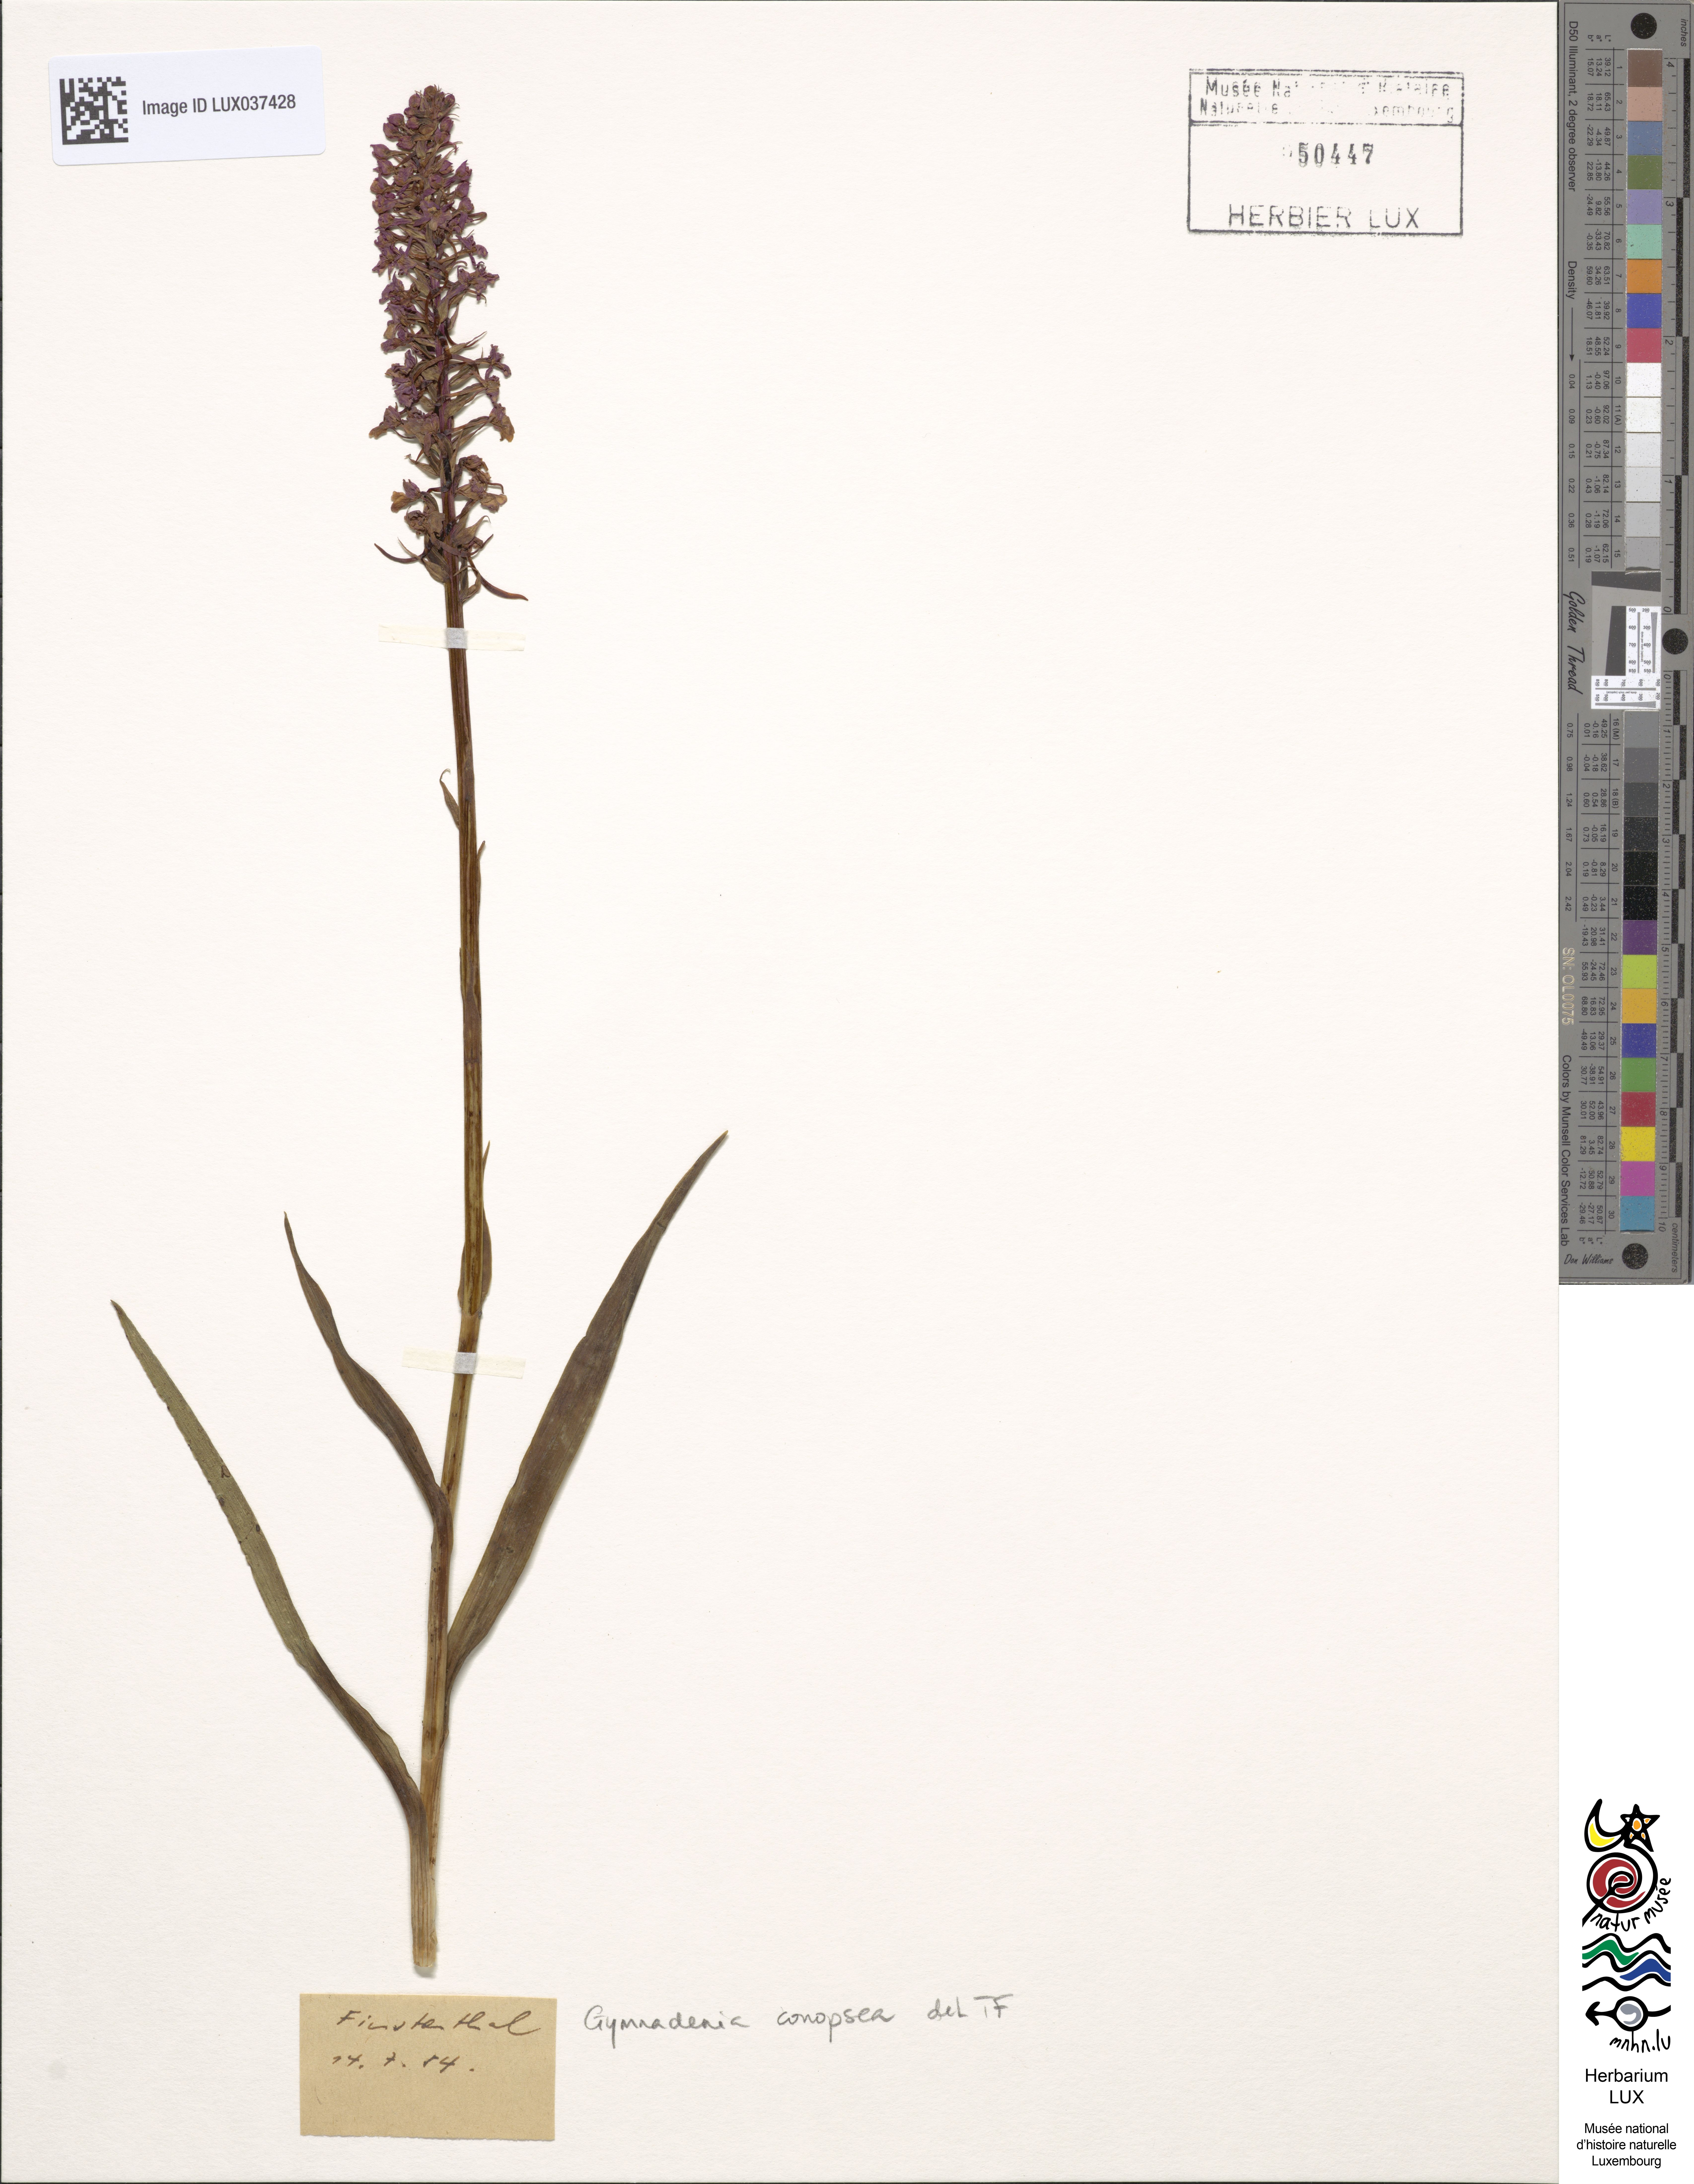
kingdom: Plantae
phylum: Tracheophyta
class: Liliopsida
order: Asparagales
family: Orchidaceae
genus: Gymnadenia
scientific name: Gymnadenia conopsea
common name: Fragrant orchid
